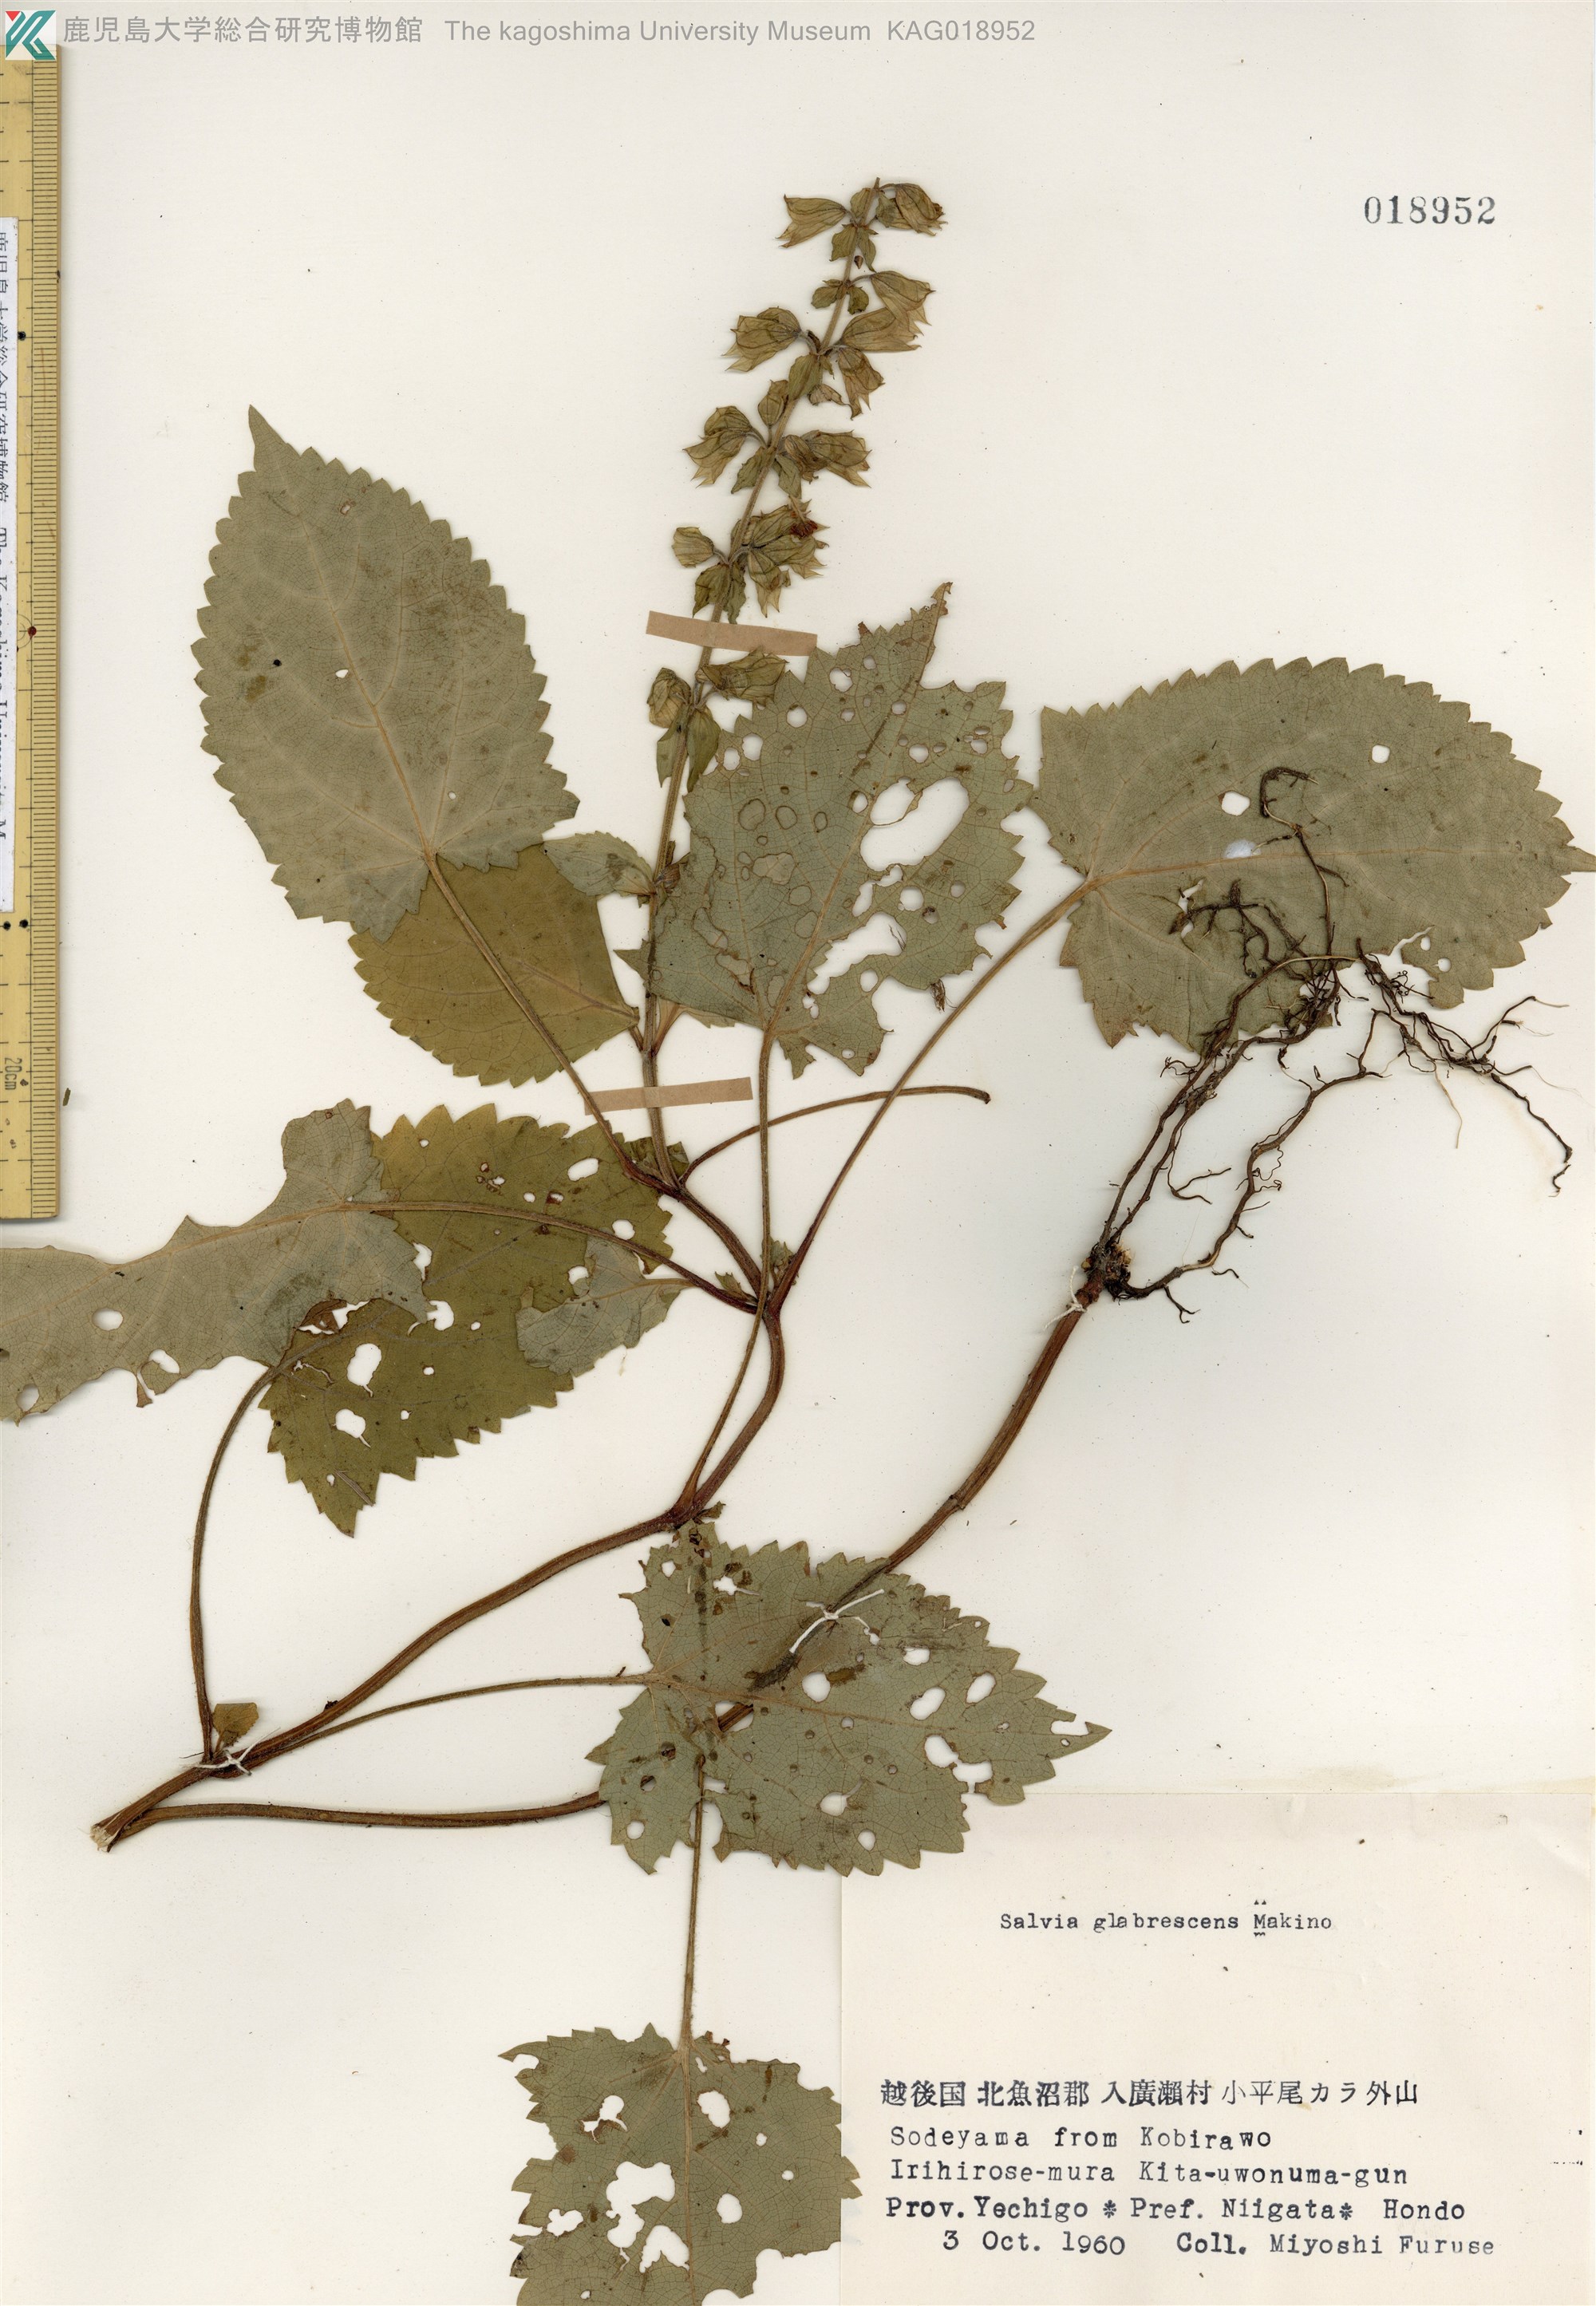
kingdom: Plantae
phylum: Tracheophyta
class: Magnoliopsida
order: Lamiales
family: Lamiaceae
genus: Salvia
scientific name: Salvia glabrescens
